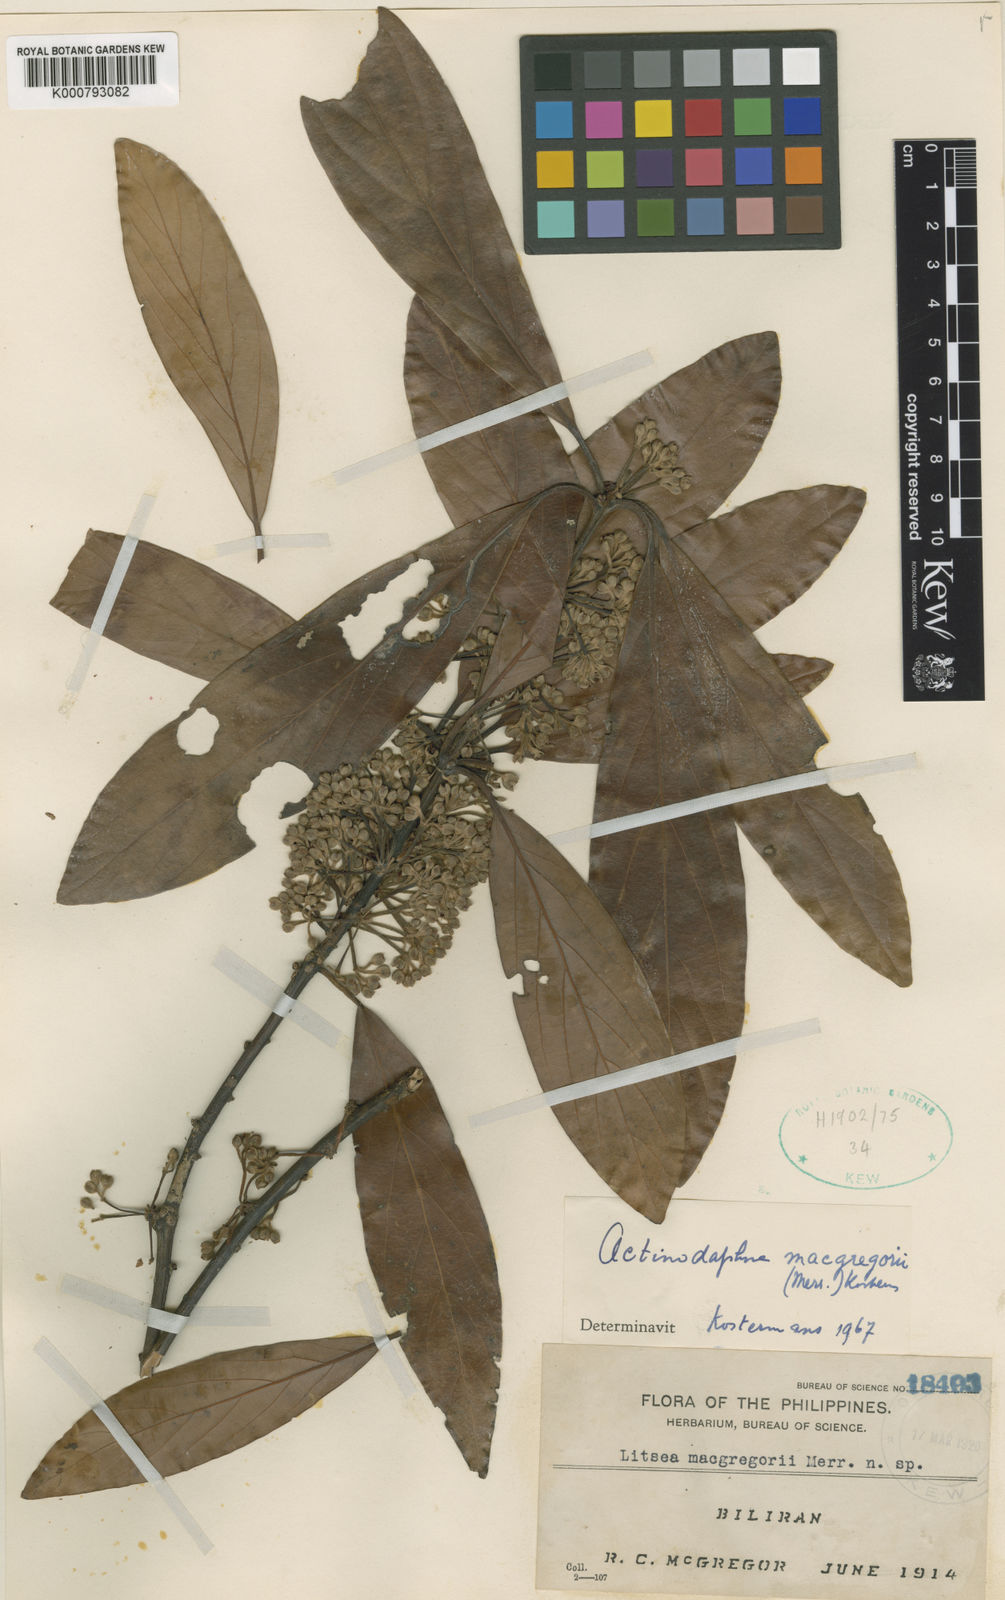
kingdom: Plantae
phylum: Tracheophyta
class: Magnoliopsida
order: Laurales
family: Lauraceae
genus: Actinodaphne
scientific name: Actinodaphne macgregorii
